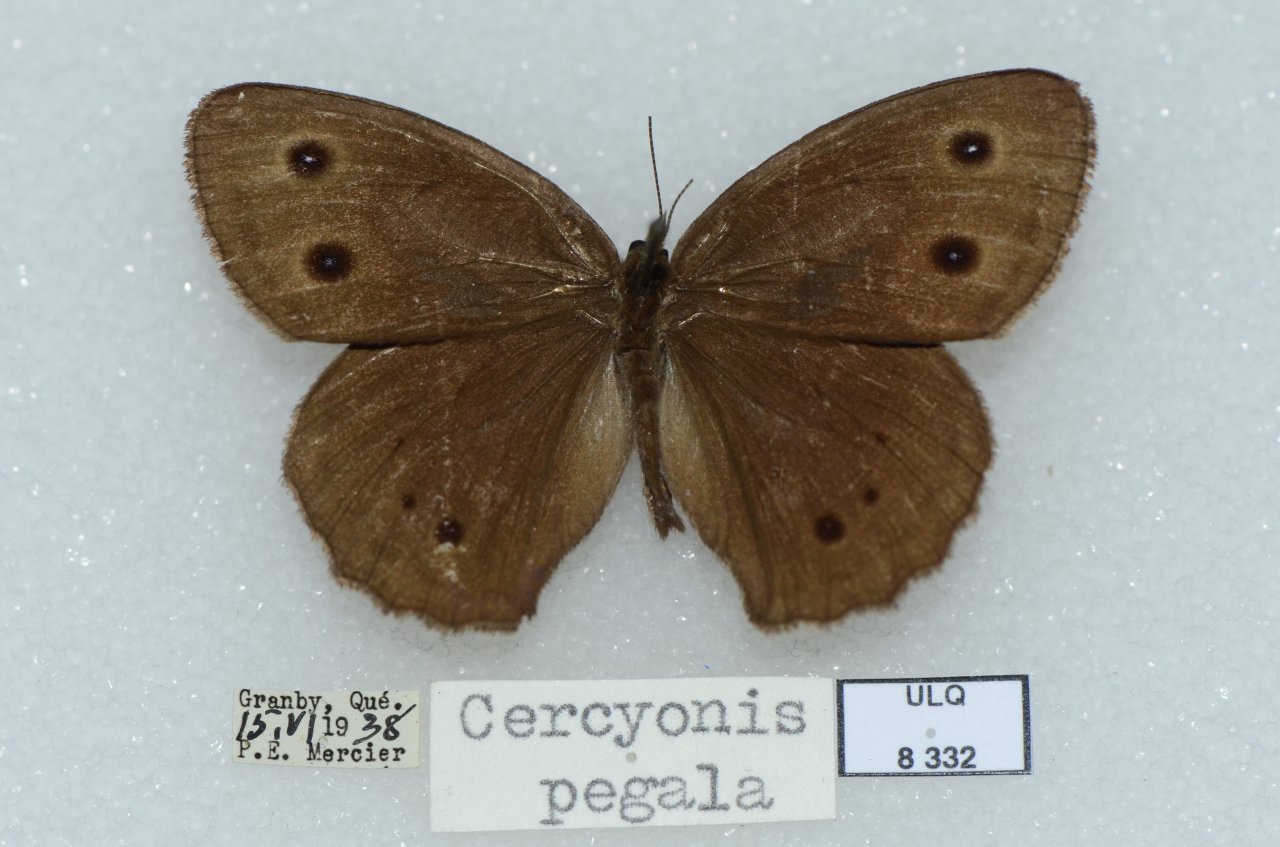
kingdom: Animalia
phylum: Arthropoda
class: Insecta
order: Lepidoptera
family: Nymphalidae
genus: Cercyonis
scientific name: Cercyonis pegala
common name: Common Wood-Nymph
